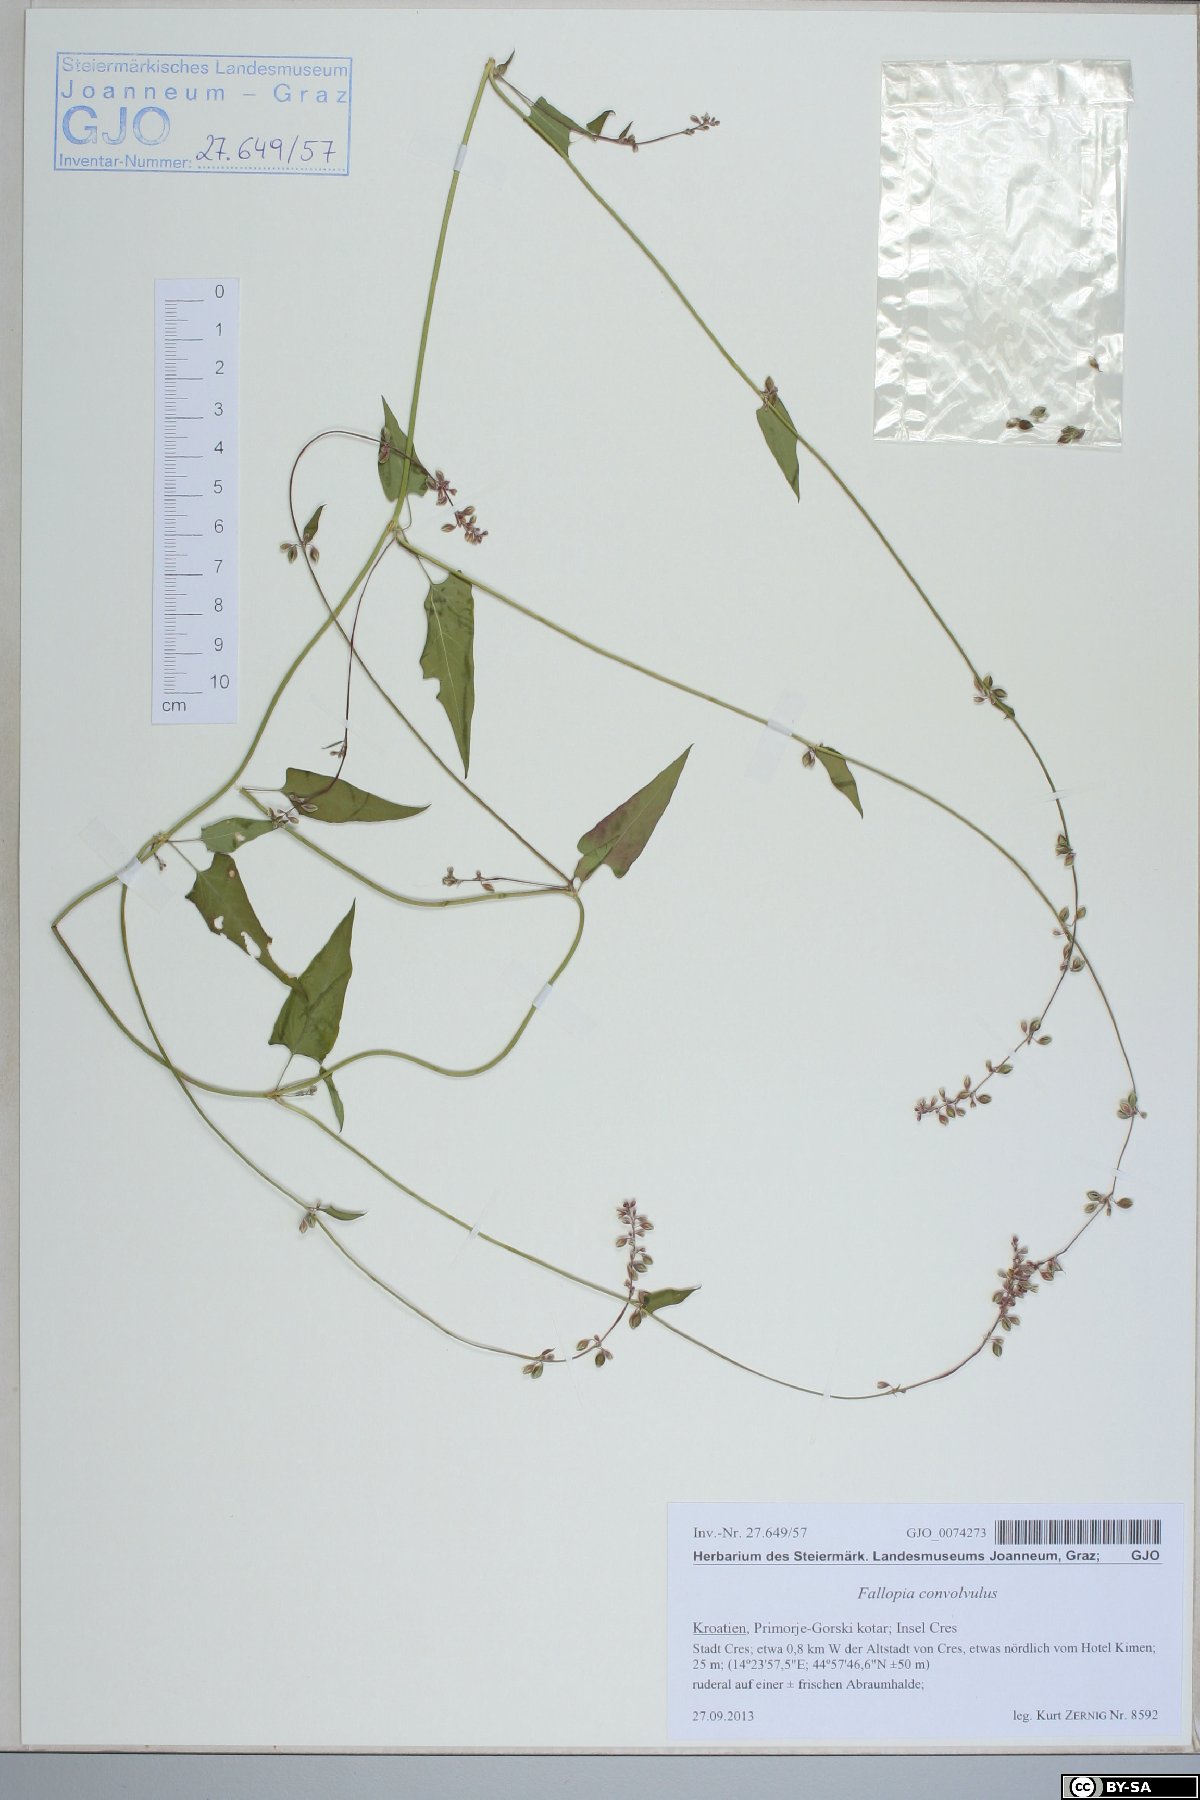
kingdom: Plantae
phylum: Tracheophyta
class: Magnoliopsida
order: Caryophyllales
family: Polygonaceae
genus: Fallopia
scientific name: Fallopia convolvulus
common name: Black bindweed
